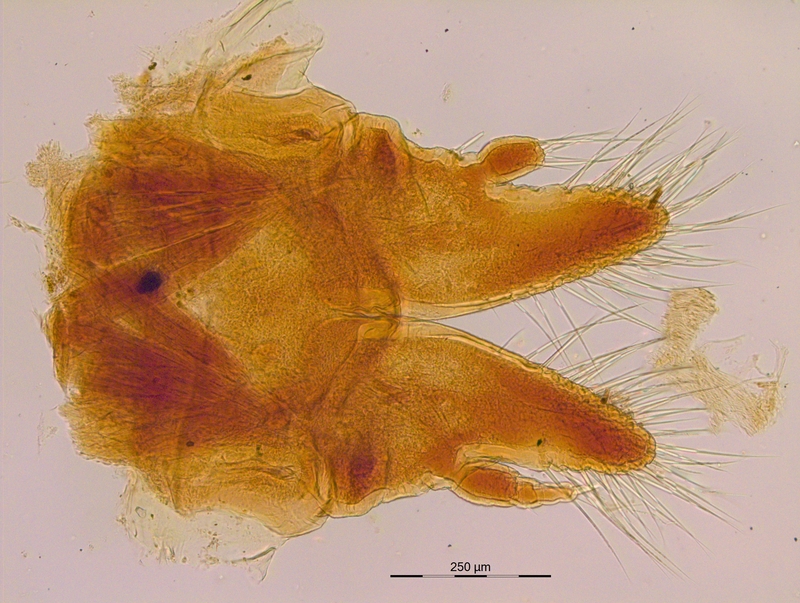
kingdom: Animalia
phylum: Arthropoda
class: Diplopoda
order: Julida
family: Mongoliulidae
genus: Paraprotopus
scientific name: Paraprotopus inferus
